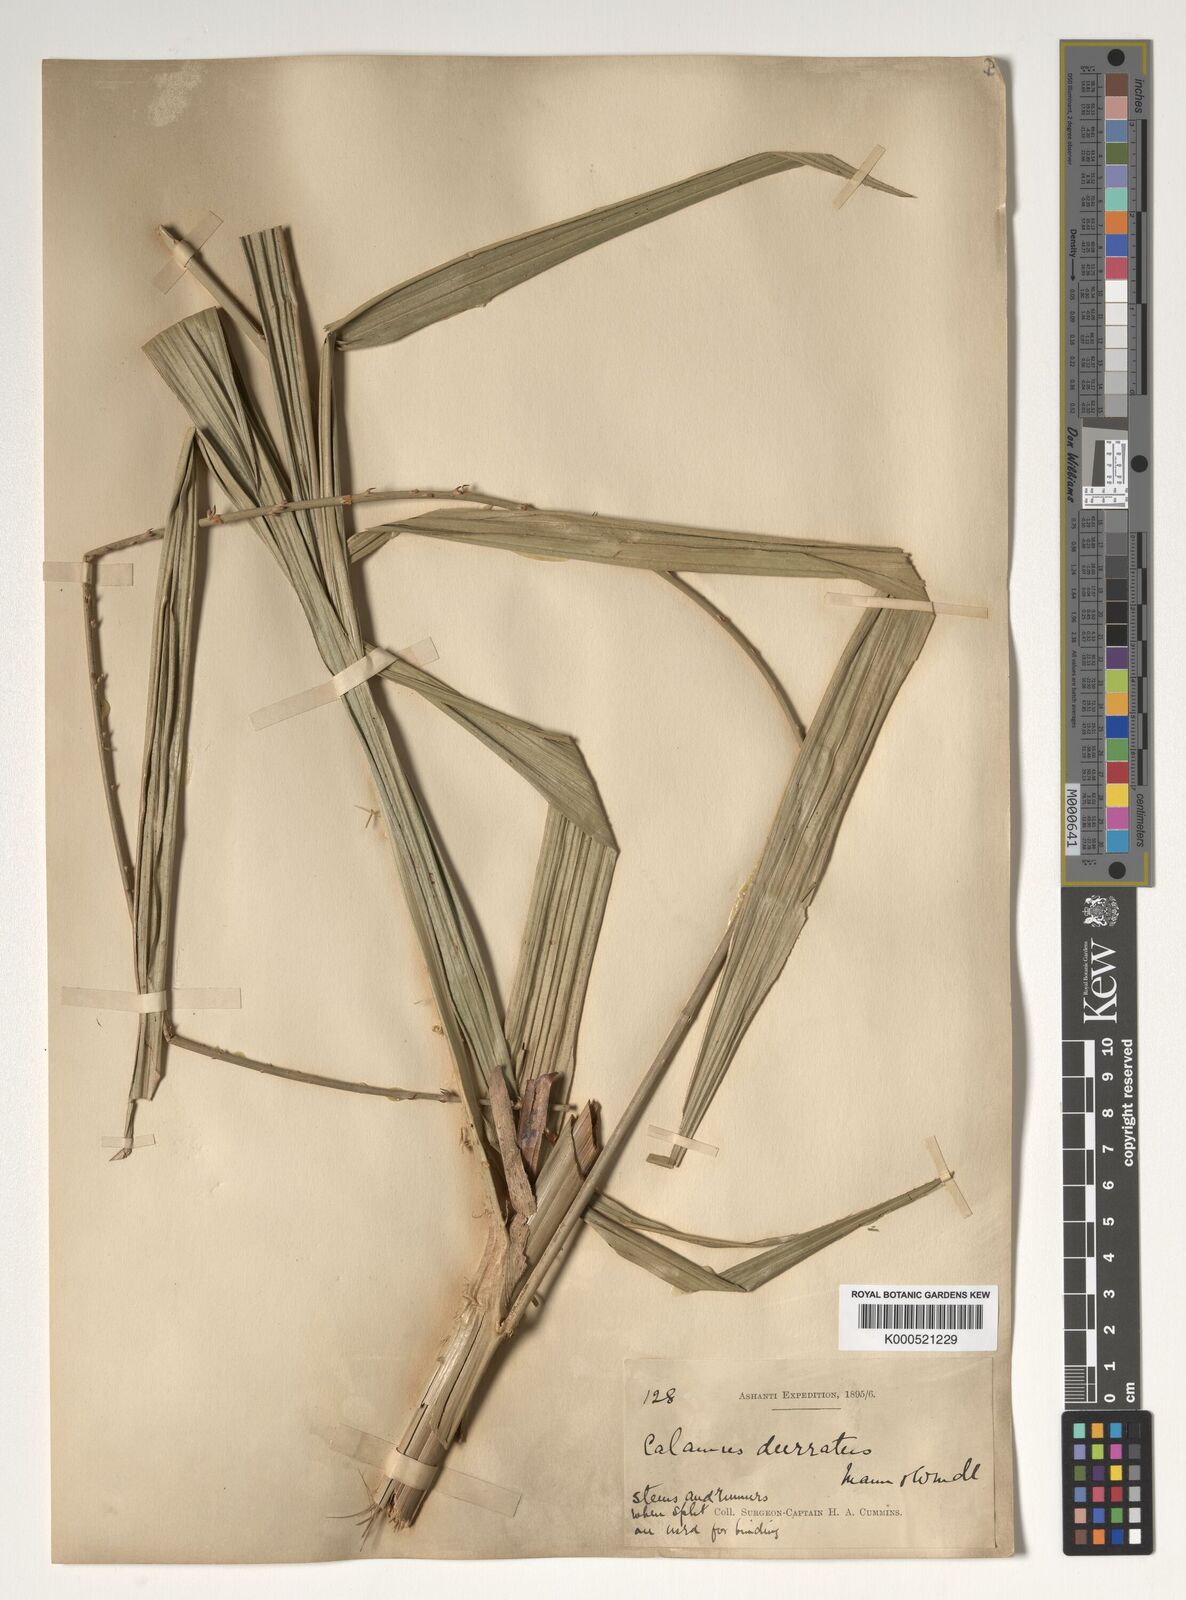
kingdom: Plantae
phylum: Tracheophyta
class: Liliopsida
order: Arecales
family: Arecaceae
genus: Calamus
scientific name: Calamus deerratus
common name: Rattan
